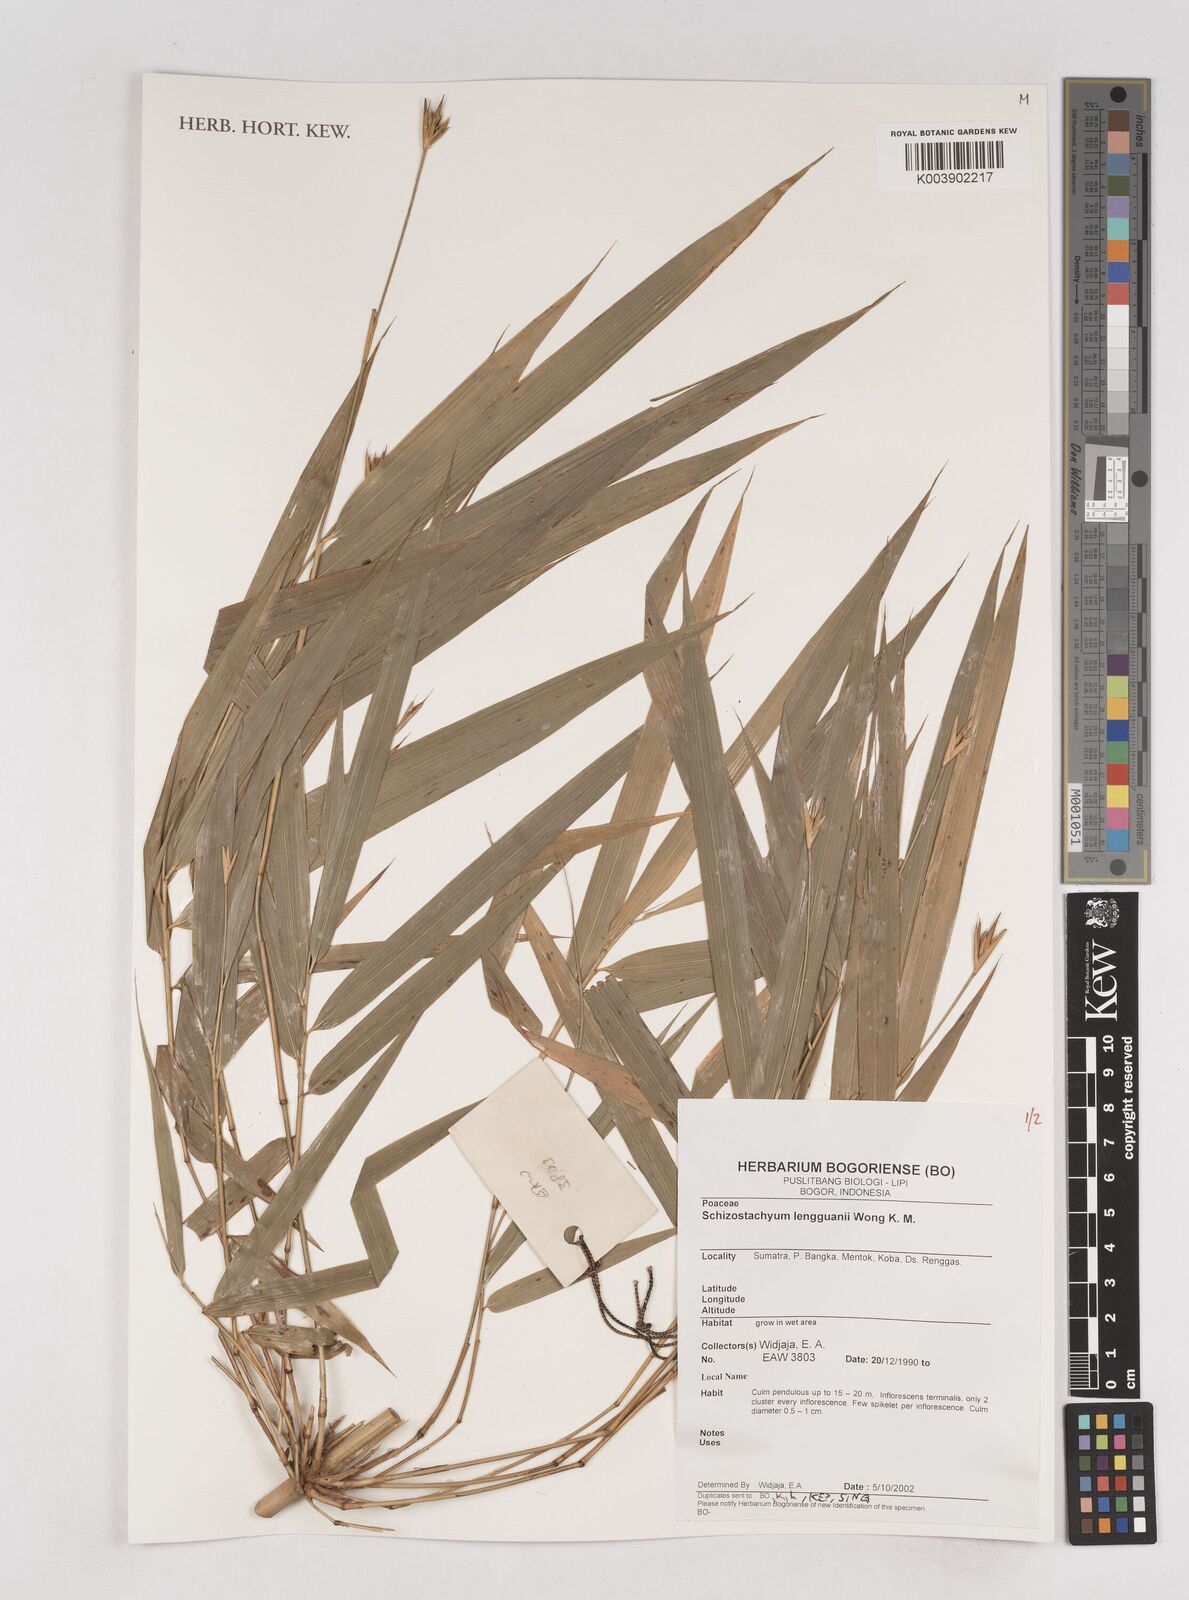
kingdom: Plantae
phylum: Tracheophyta
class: Liliopsida
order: Poales
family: Poaceae
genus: Schizostachyum
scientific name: Schizostachyum lengguanii
